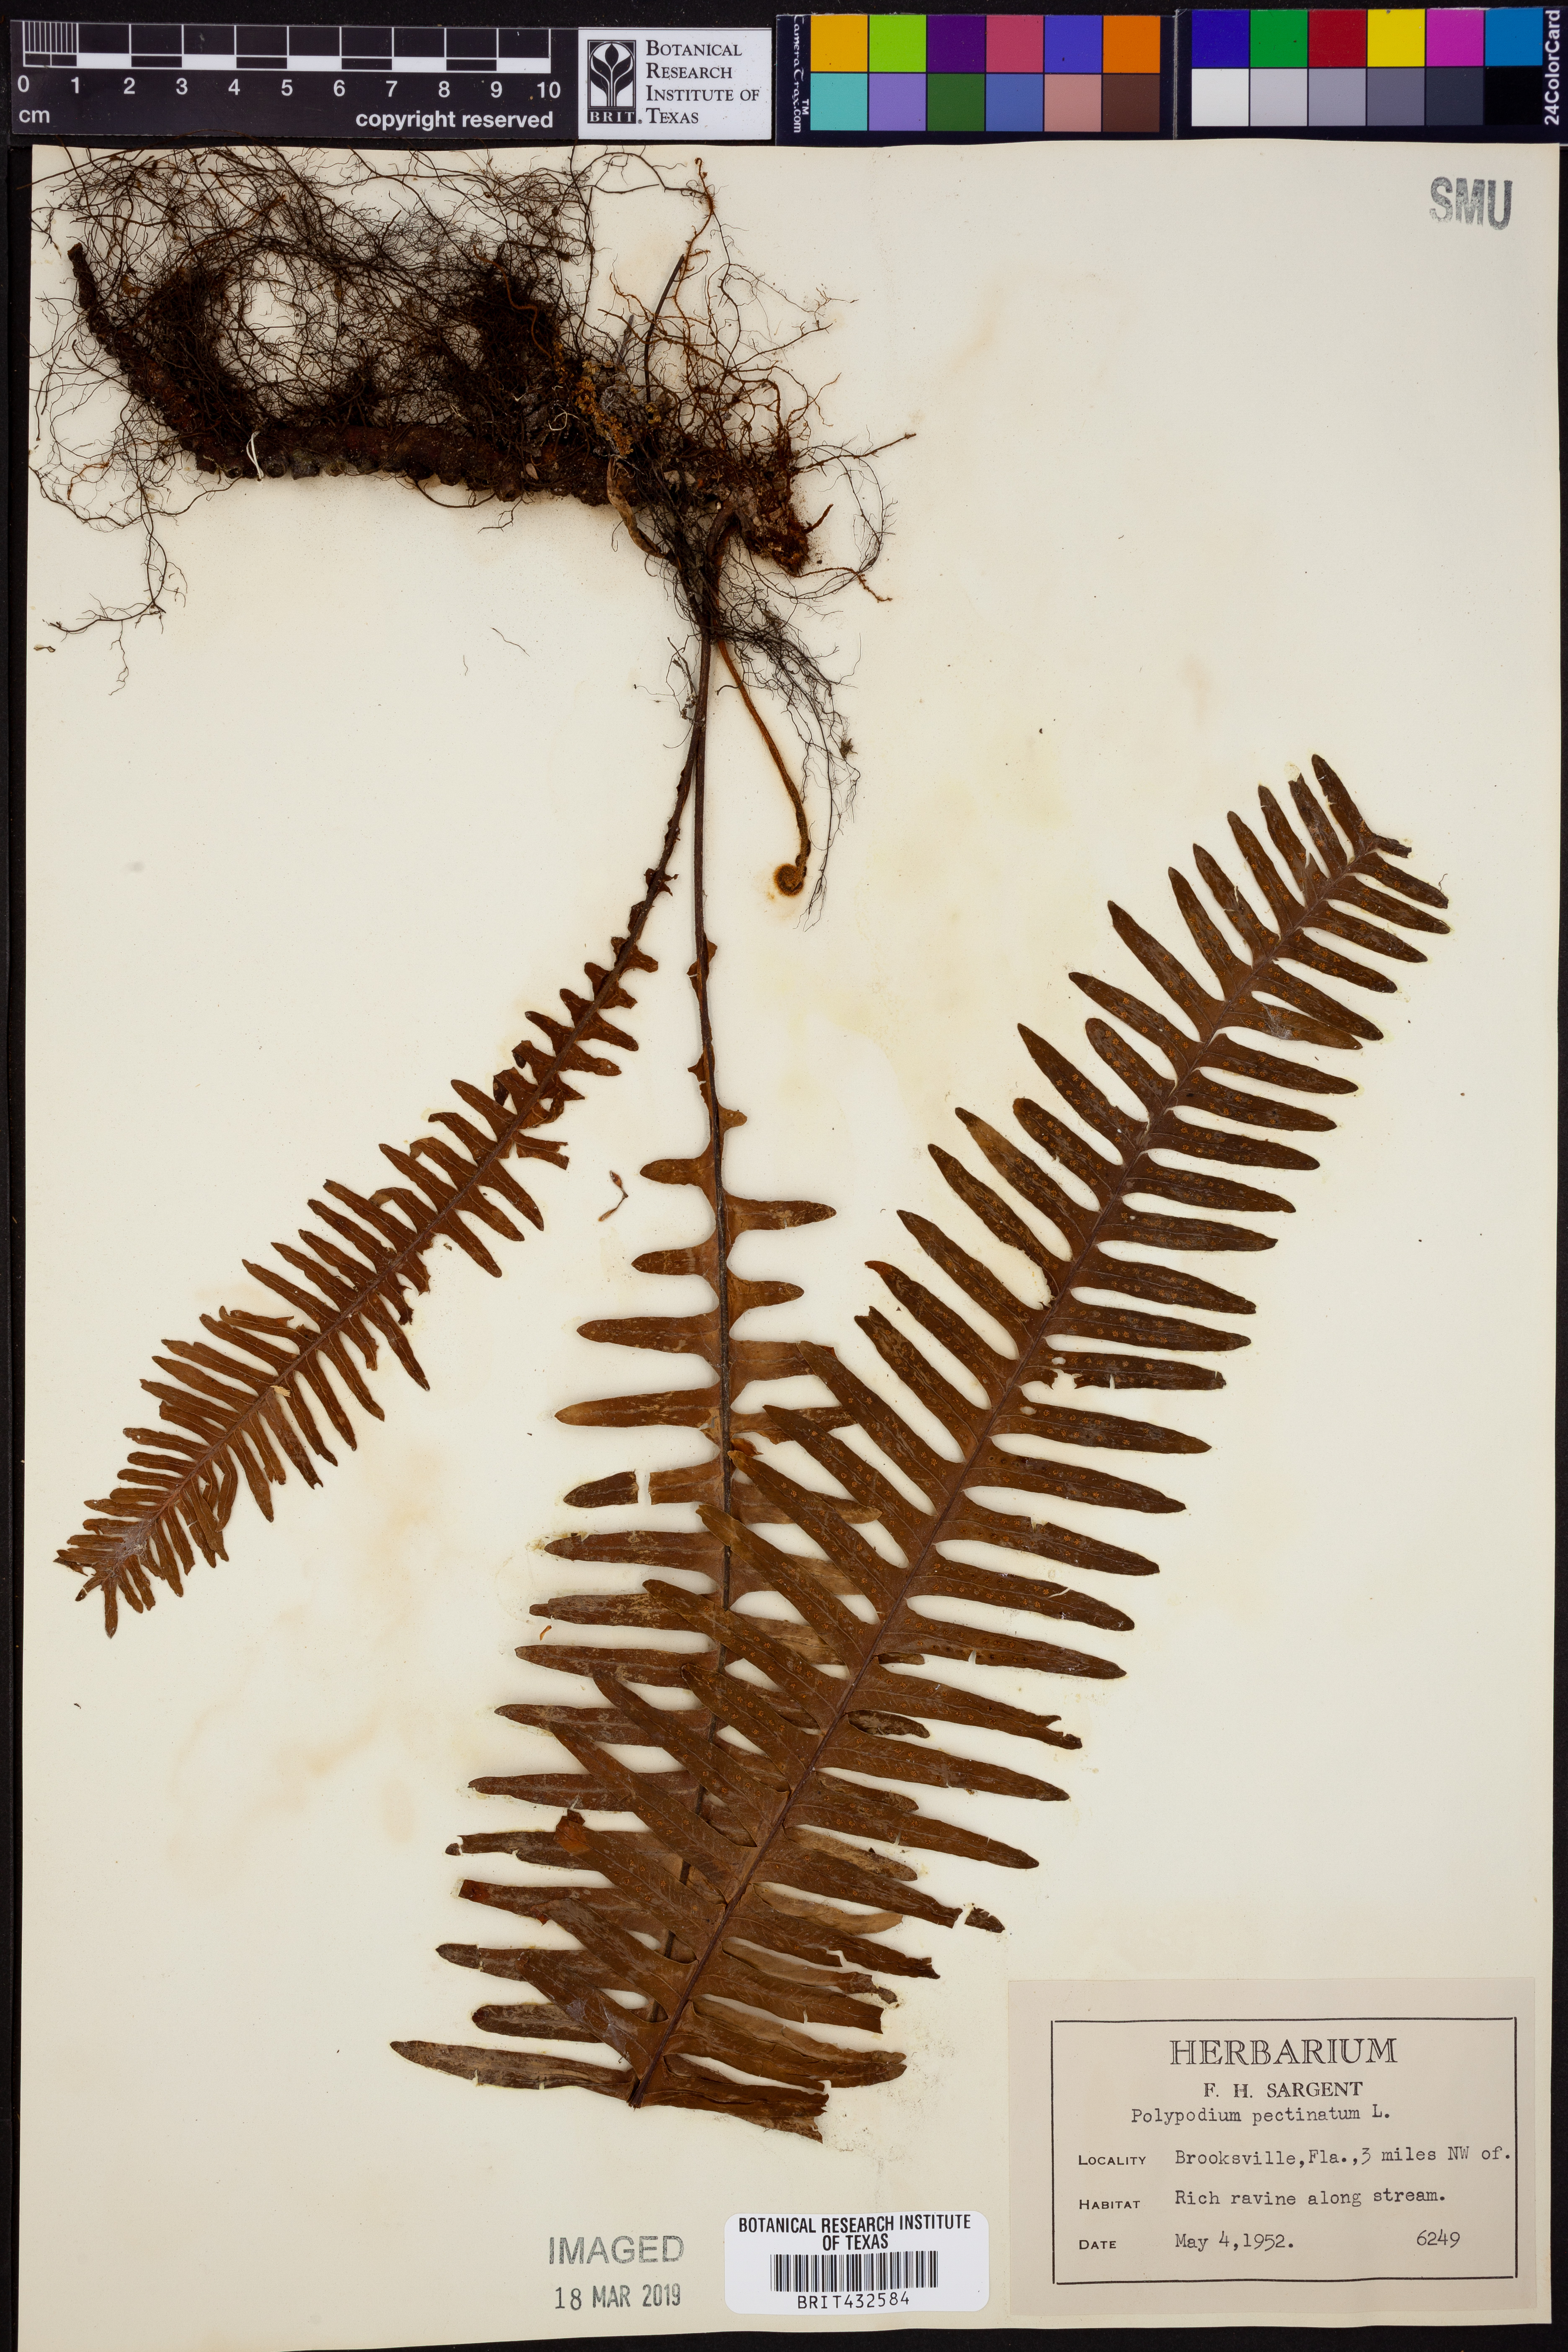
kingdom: Plantae
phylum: Tracheophyta
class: Polypodiopsida
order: Polypodiales
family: Polypodiaceae
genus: Pecluma
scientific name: Pecluma pectinata
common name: Msasa fern
